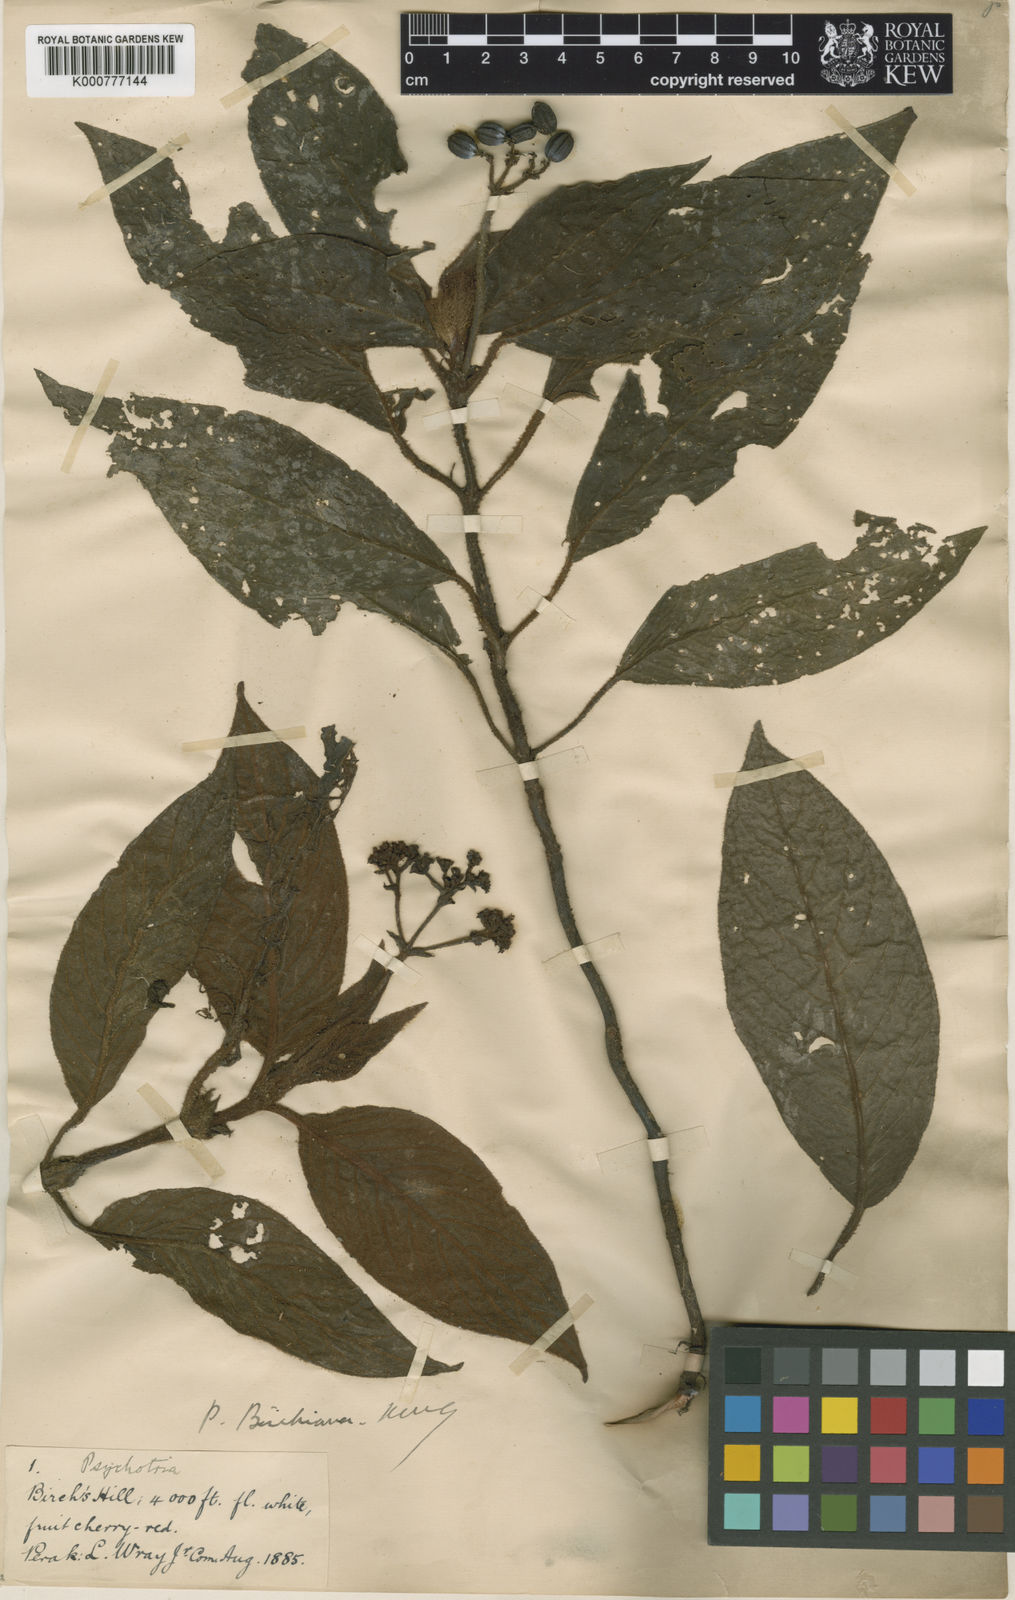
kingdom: Plantae
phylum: Tracheophyta
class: Magnoliopsida
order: Gentianales
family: Rubiaceae
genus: Psychotria
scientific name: Psychotria birchiana
